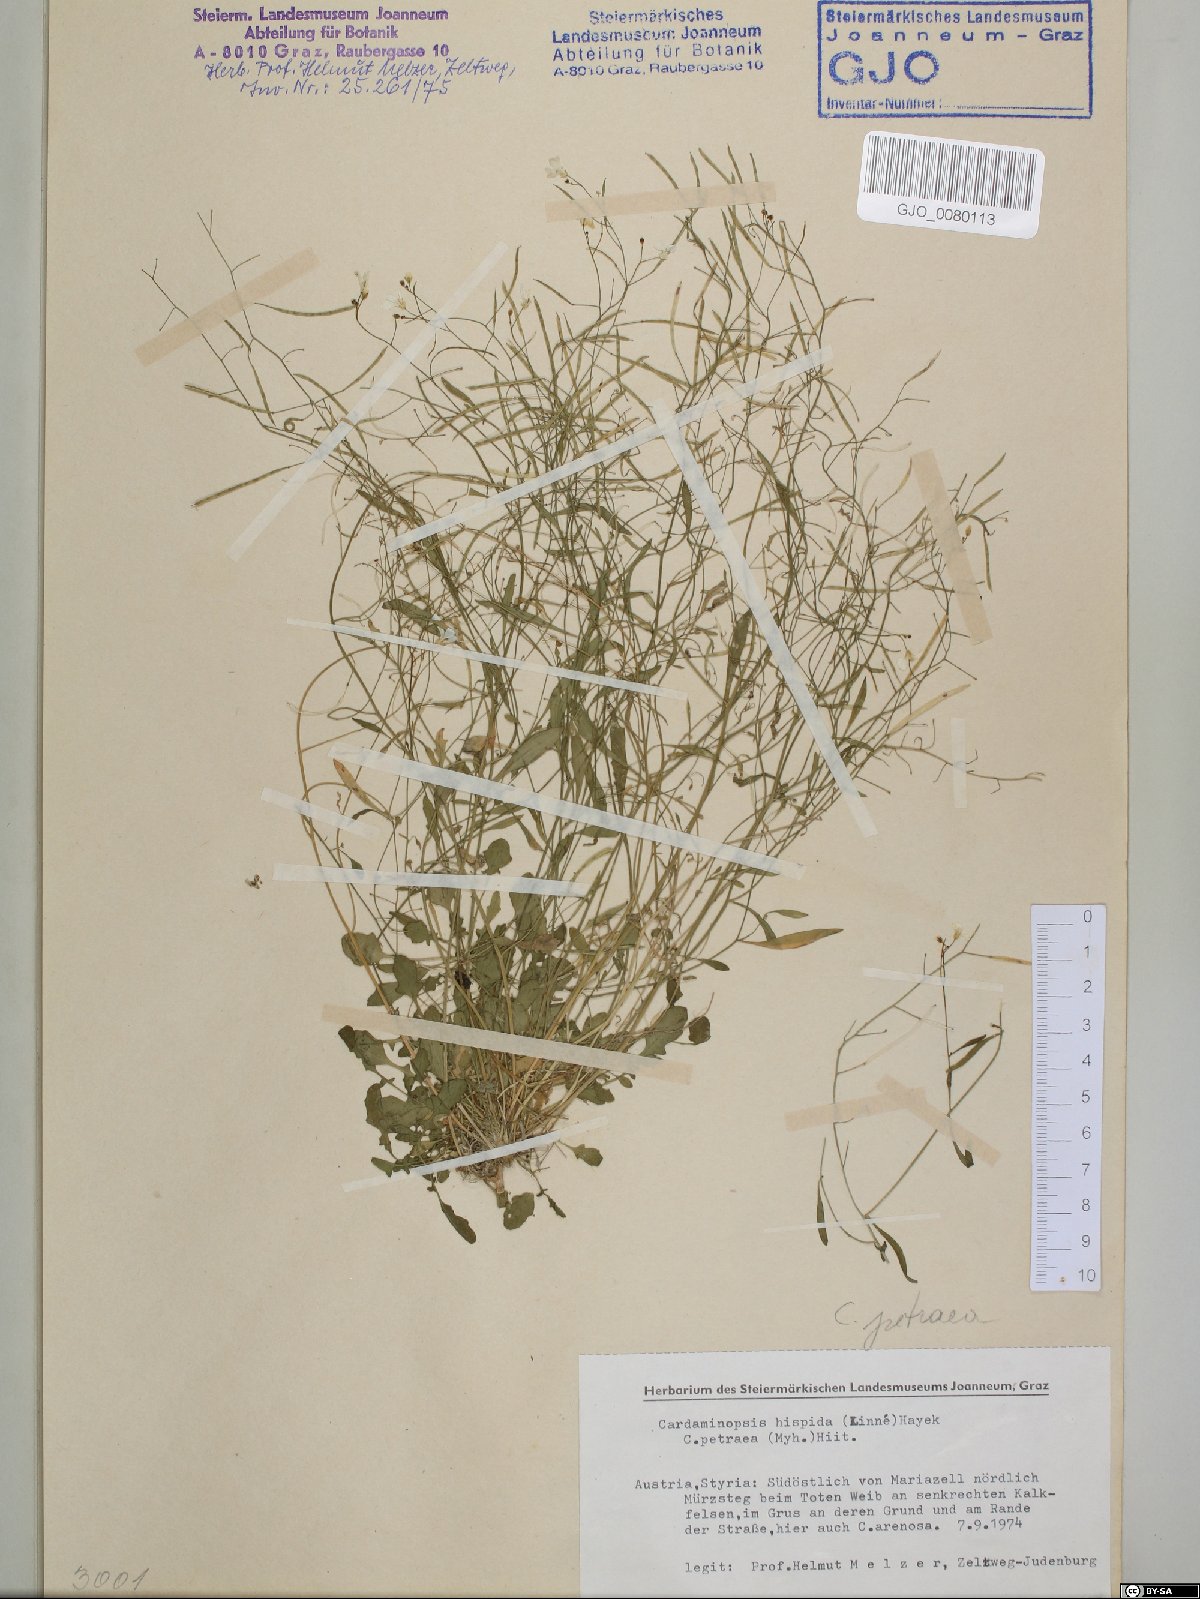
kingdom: Plantae
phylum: Tracheophyta
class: Magnoliopsida
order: Brassicales
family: Brassicaceae
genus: Arabidopsis
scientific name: Arabidopsis lyrata
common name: Lyrate rockcress
